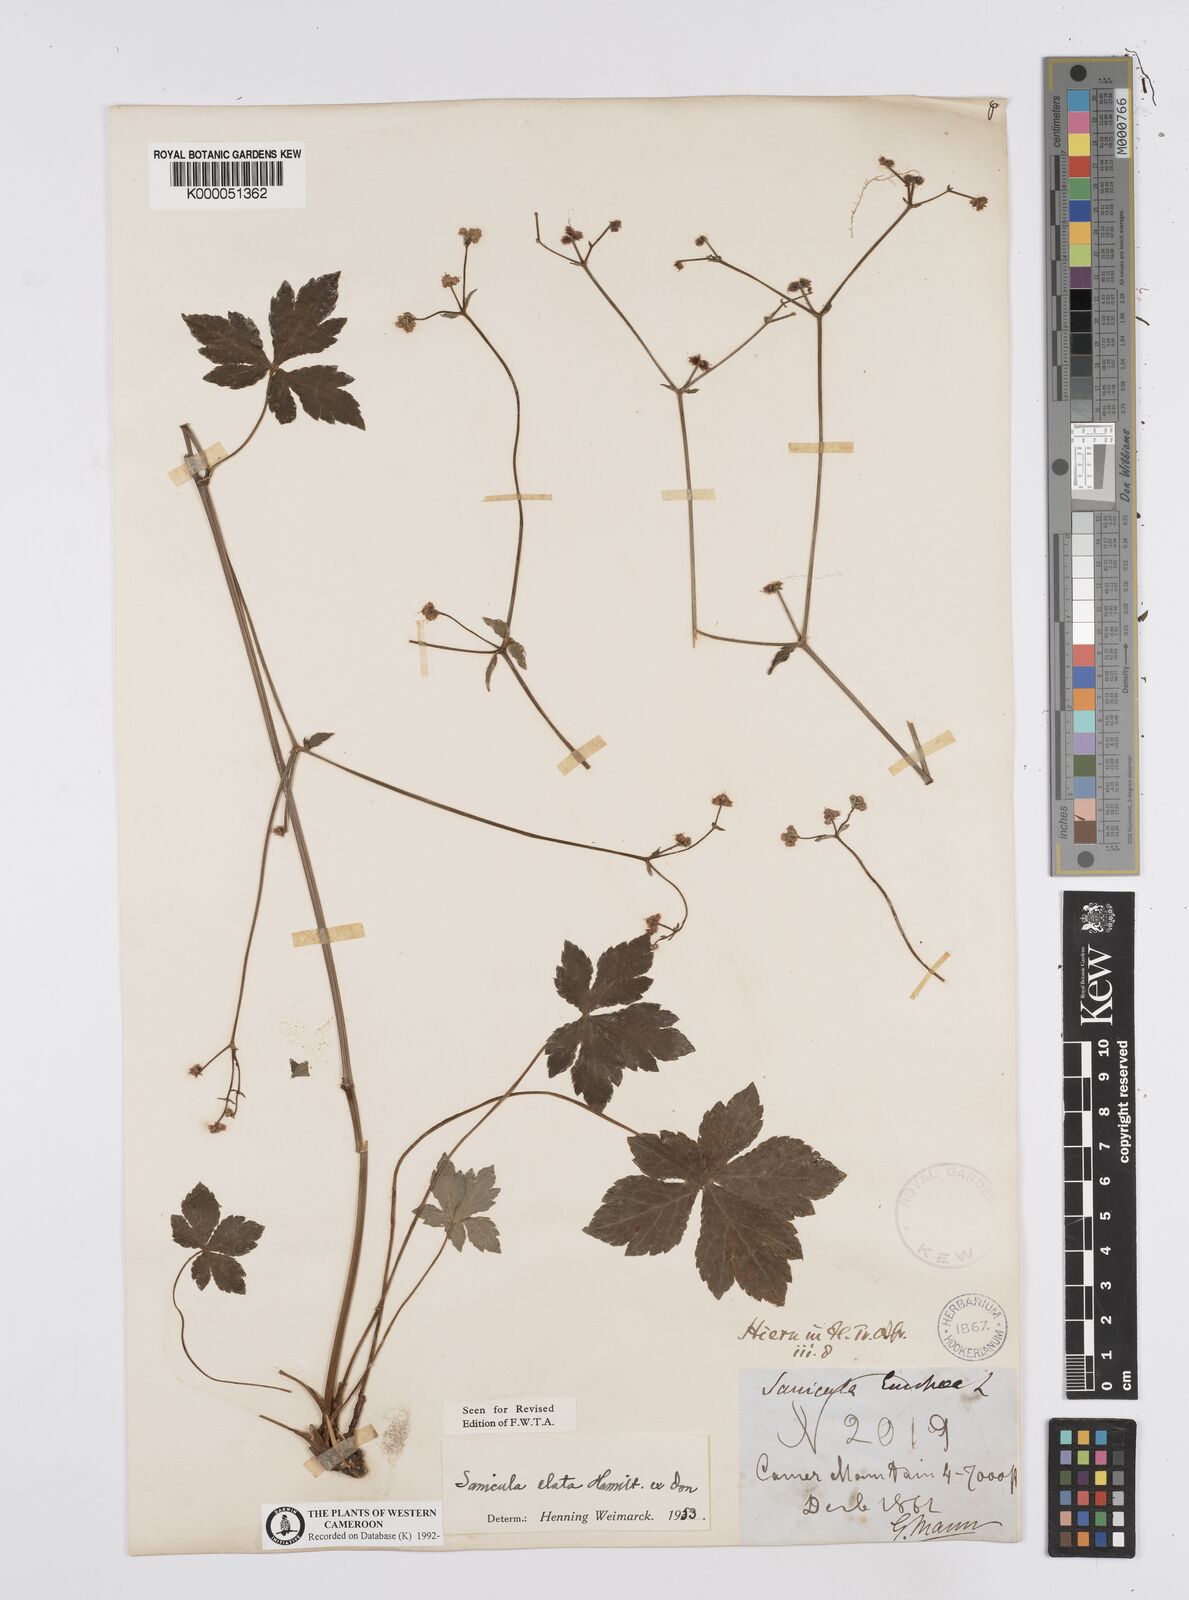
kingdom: Plantae
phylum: Tracheophyta
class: Magnoliopsida
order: Apiales
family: Apiaceae
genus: Sanicula
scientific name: Sanicula
